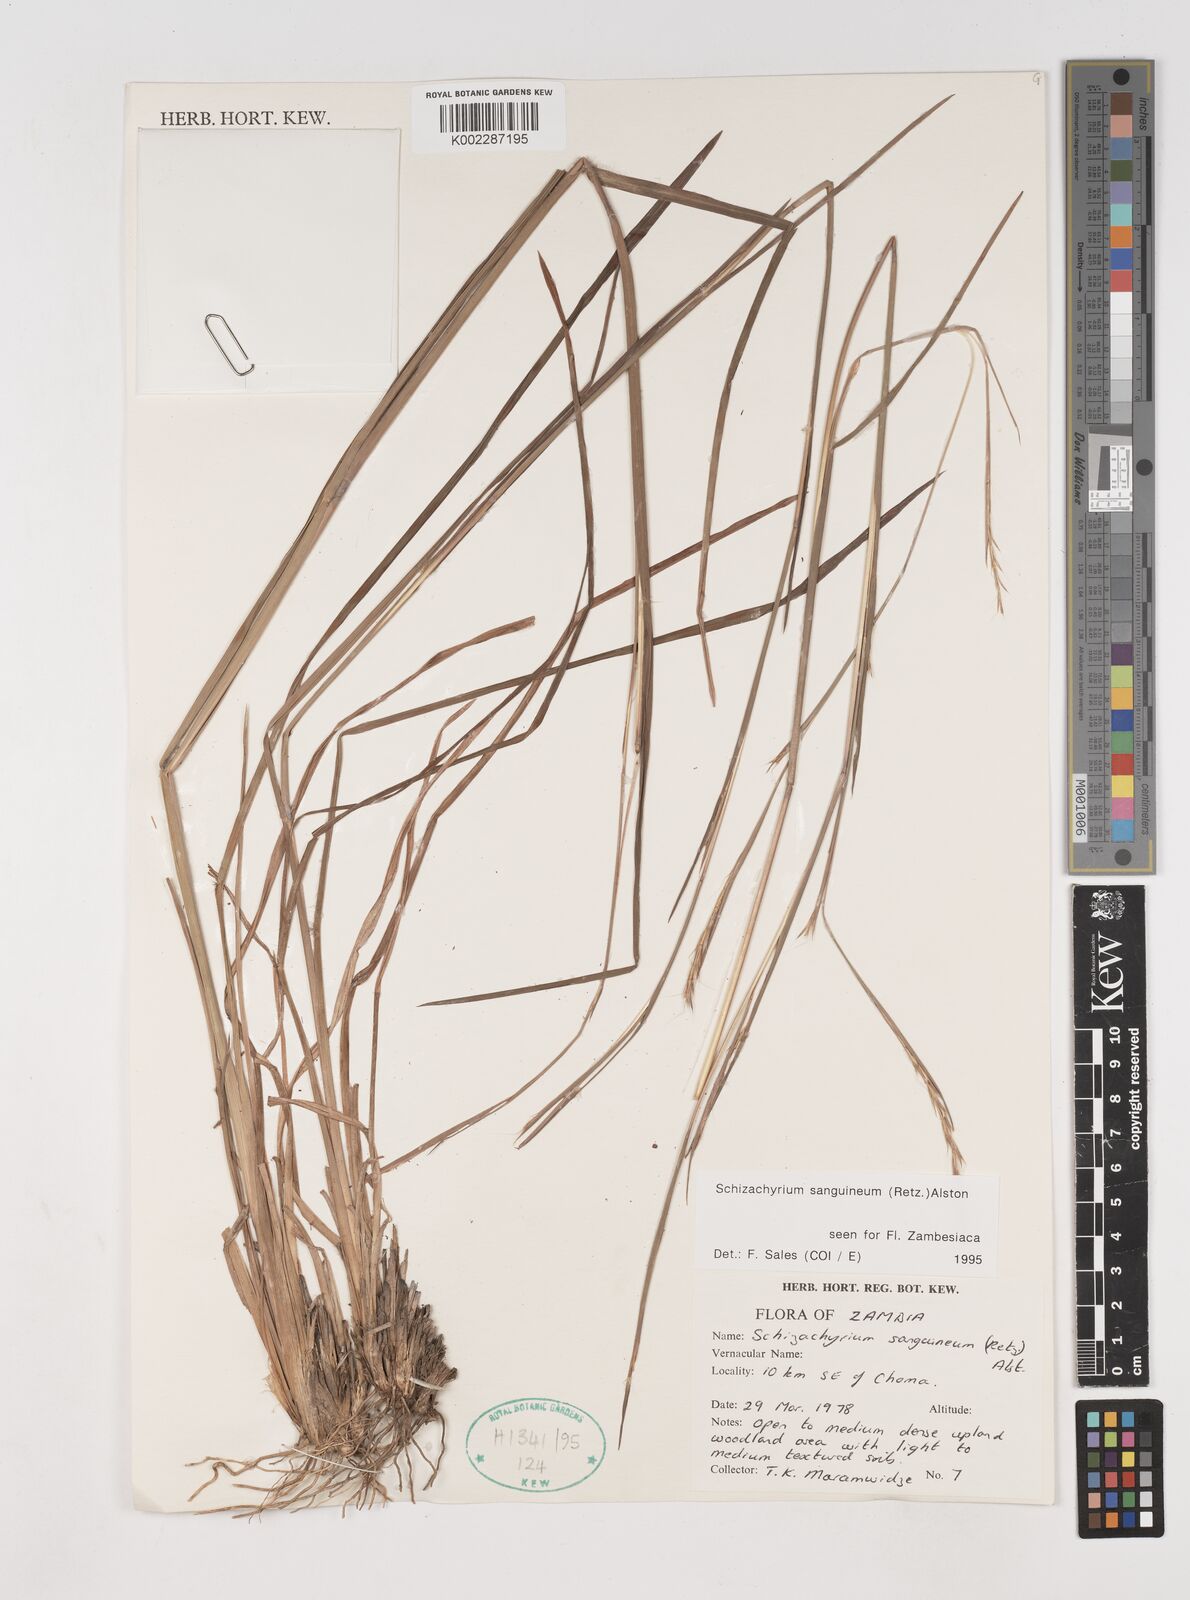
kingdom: Plantae
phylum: Tracheophyta
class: Liliopsida
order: Poales
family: Poaceae
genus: Schizachyrium
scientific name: Schizachyrium sanguineum
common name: Crimson bluestem
